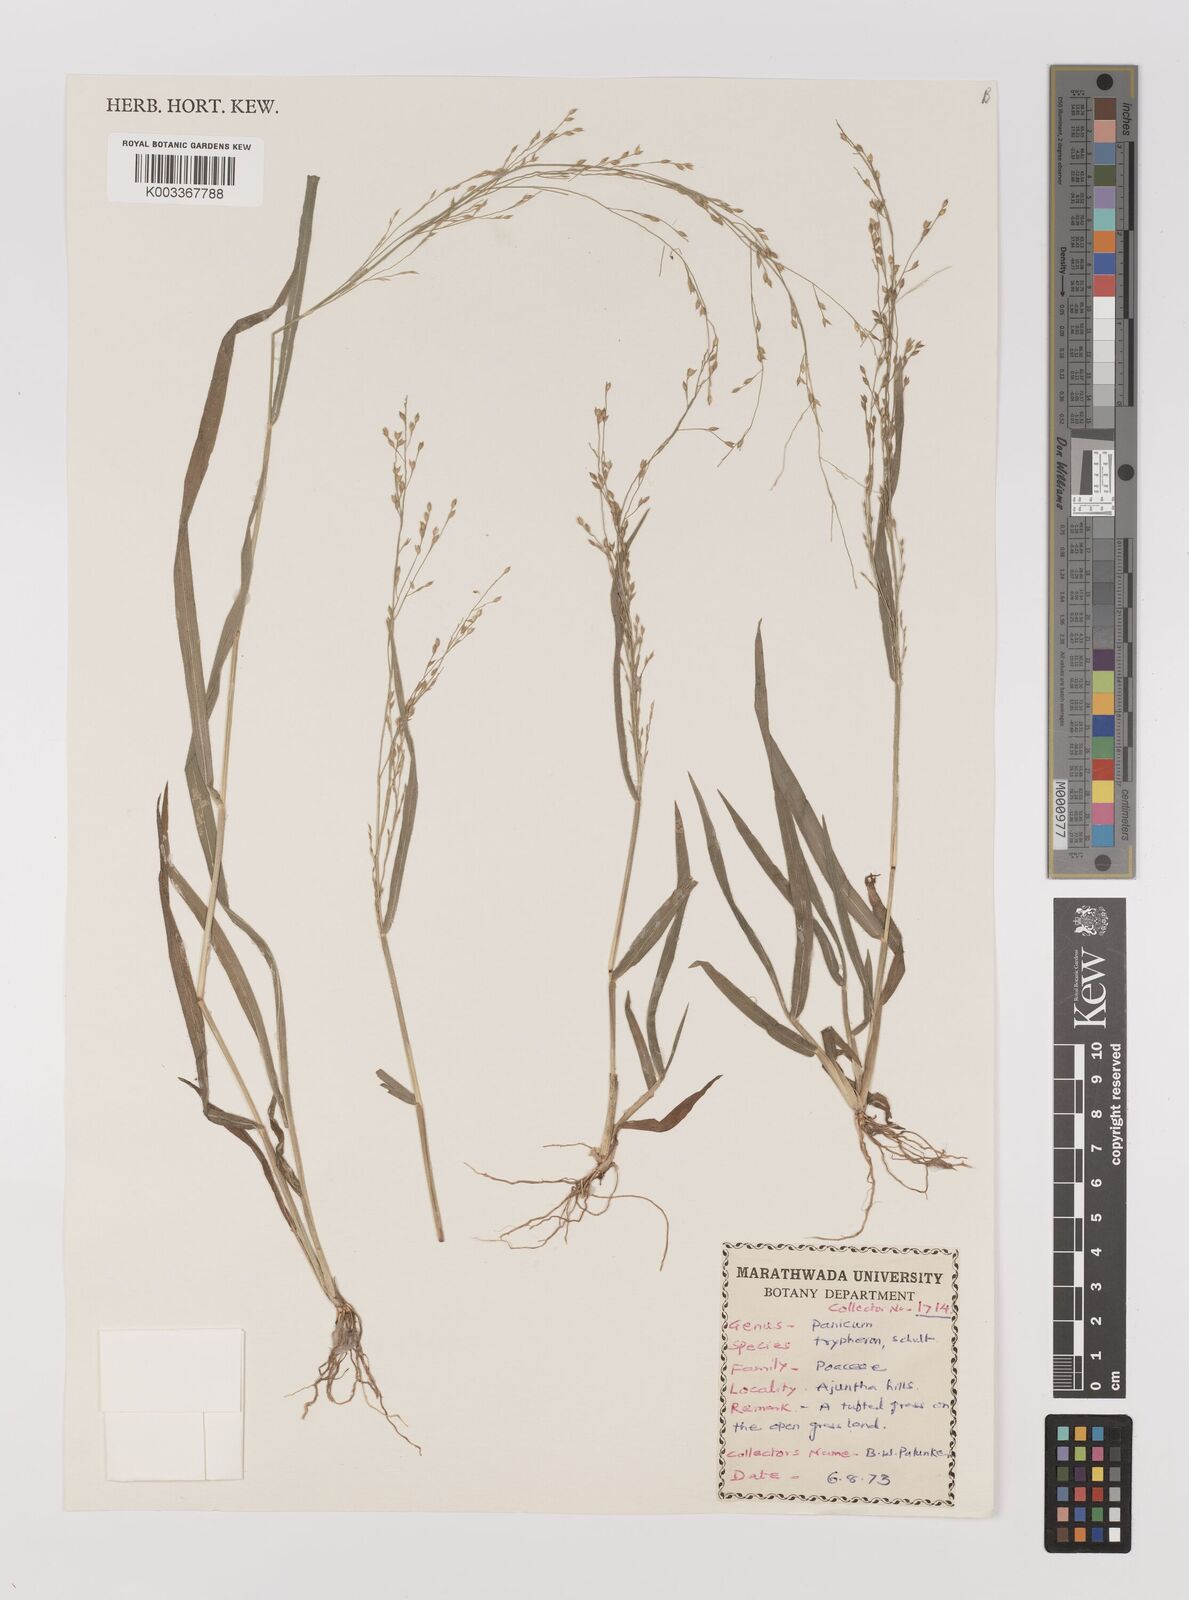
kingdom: Plantae
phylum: Tracheophyta
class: Liliopsida
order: Poales
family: Poaceae
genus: Panicum
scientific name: Panicum curviflorum
